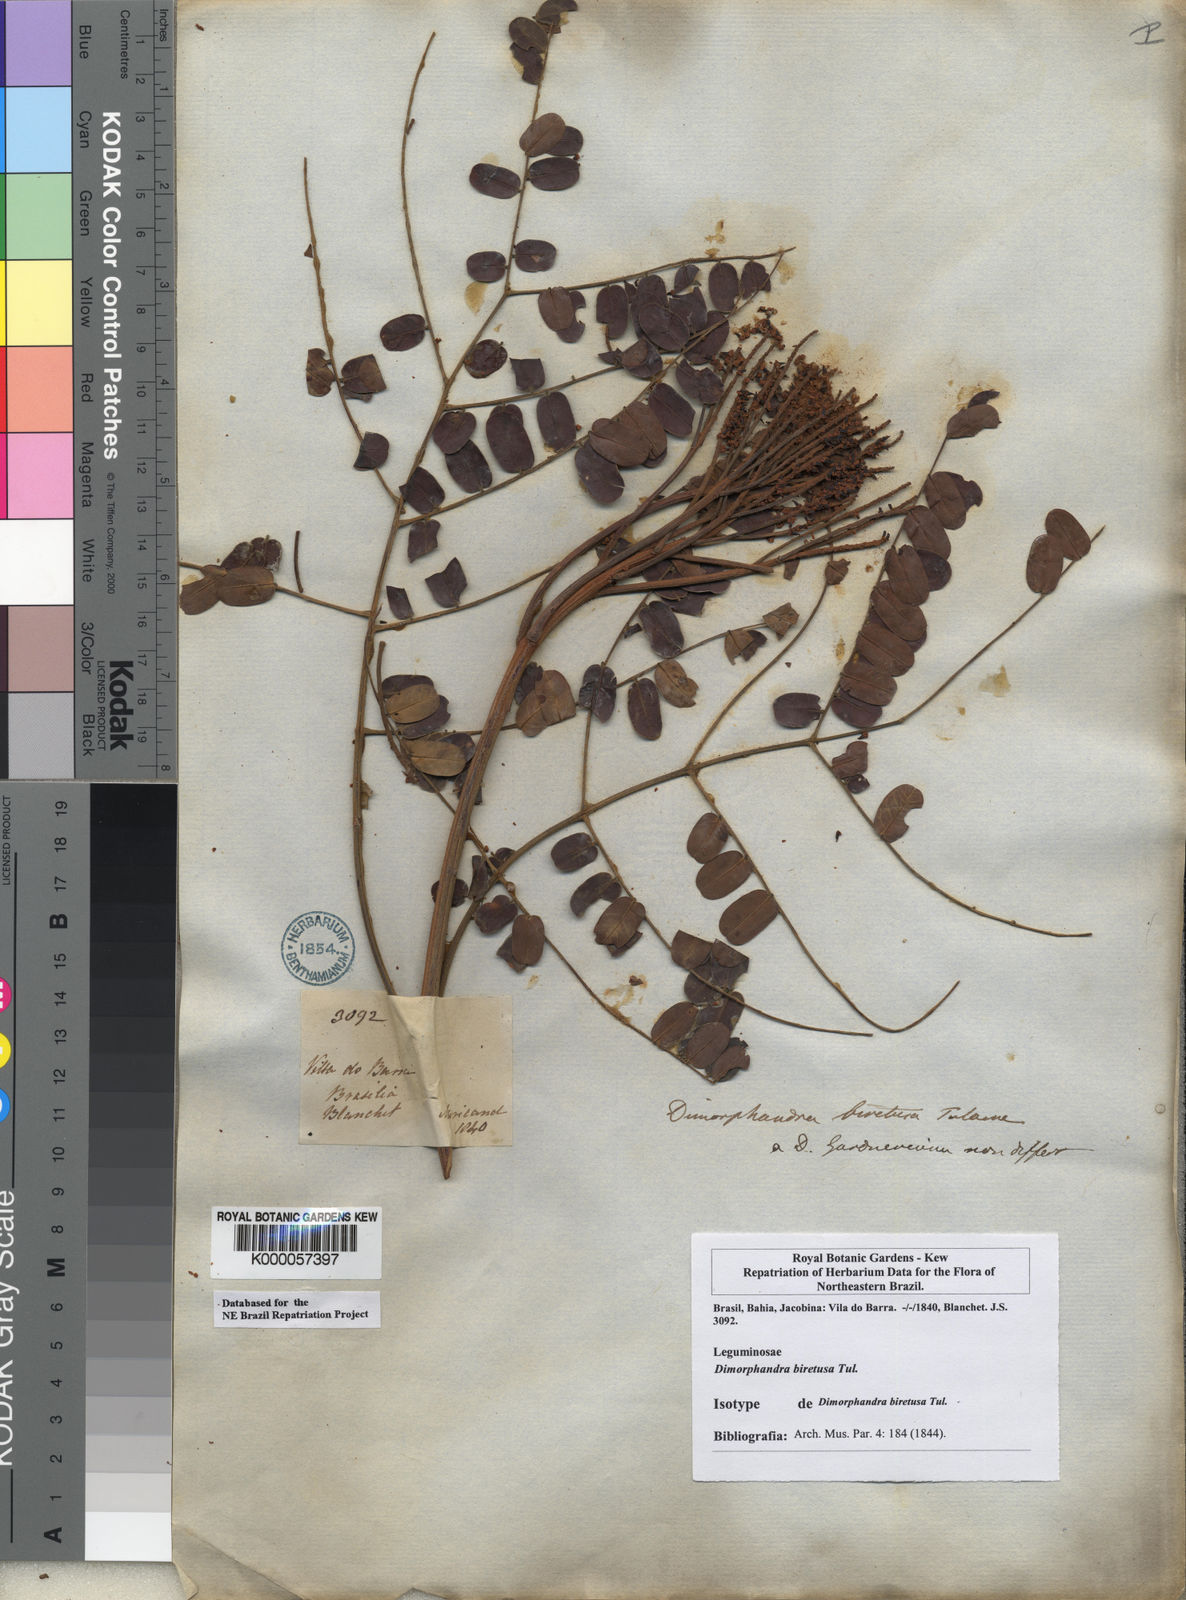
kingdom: Plantae
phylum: Tracheophyta
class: Magnoliopsida
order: Fabales
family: Fabaceae
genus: Dimorphandra
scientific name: Dimorphandra gardneriana
